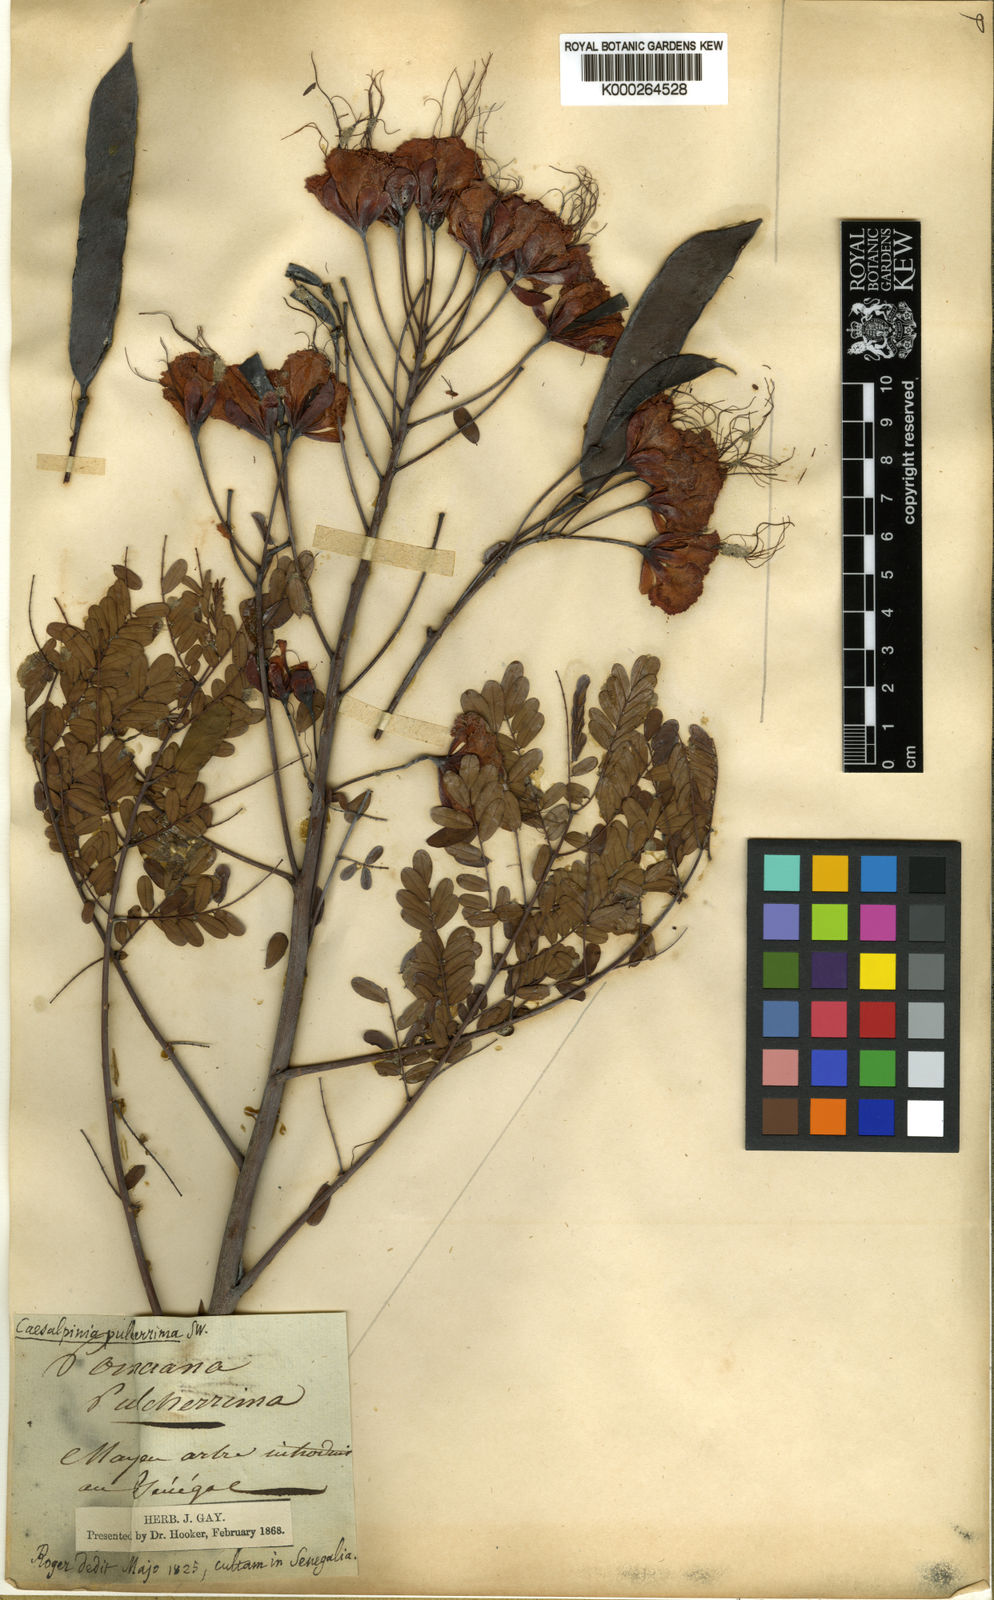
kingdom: Plantae
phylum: Tracheophyta
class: Magnoliopsida
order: Fabales
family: Fabaceae
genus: Caesalpinia
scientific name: Caesalpinia pulcherrima
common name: Pride-of-barbados
